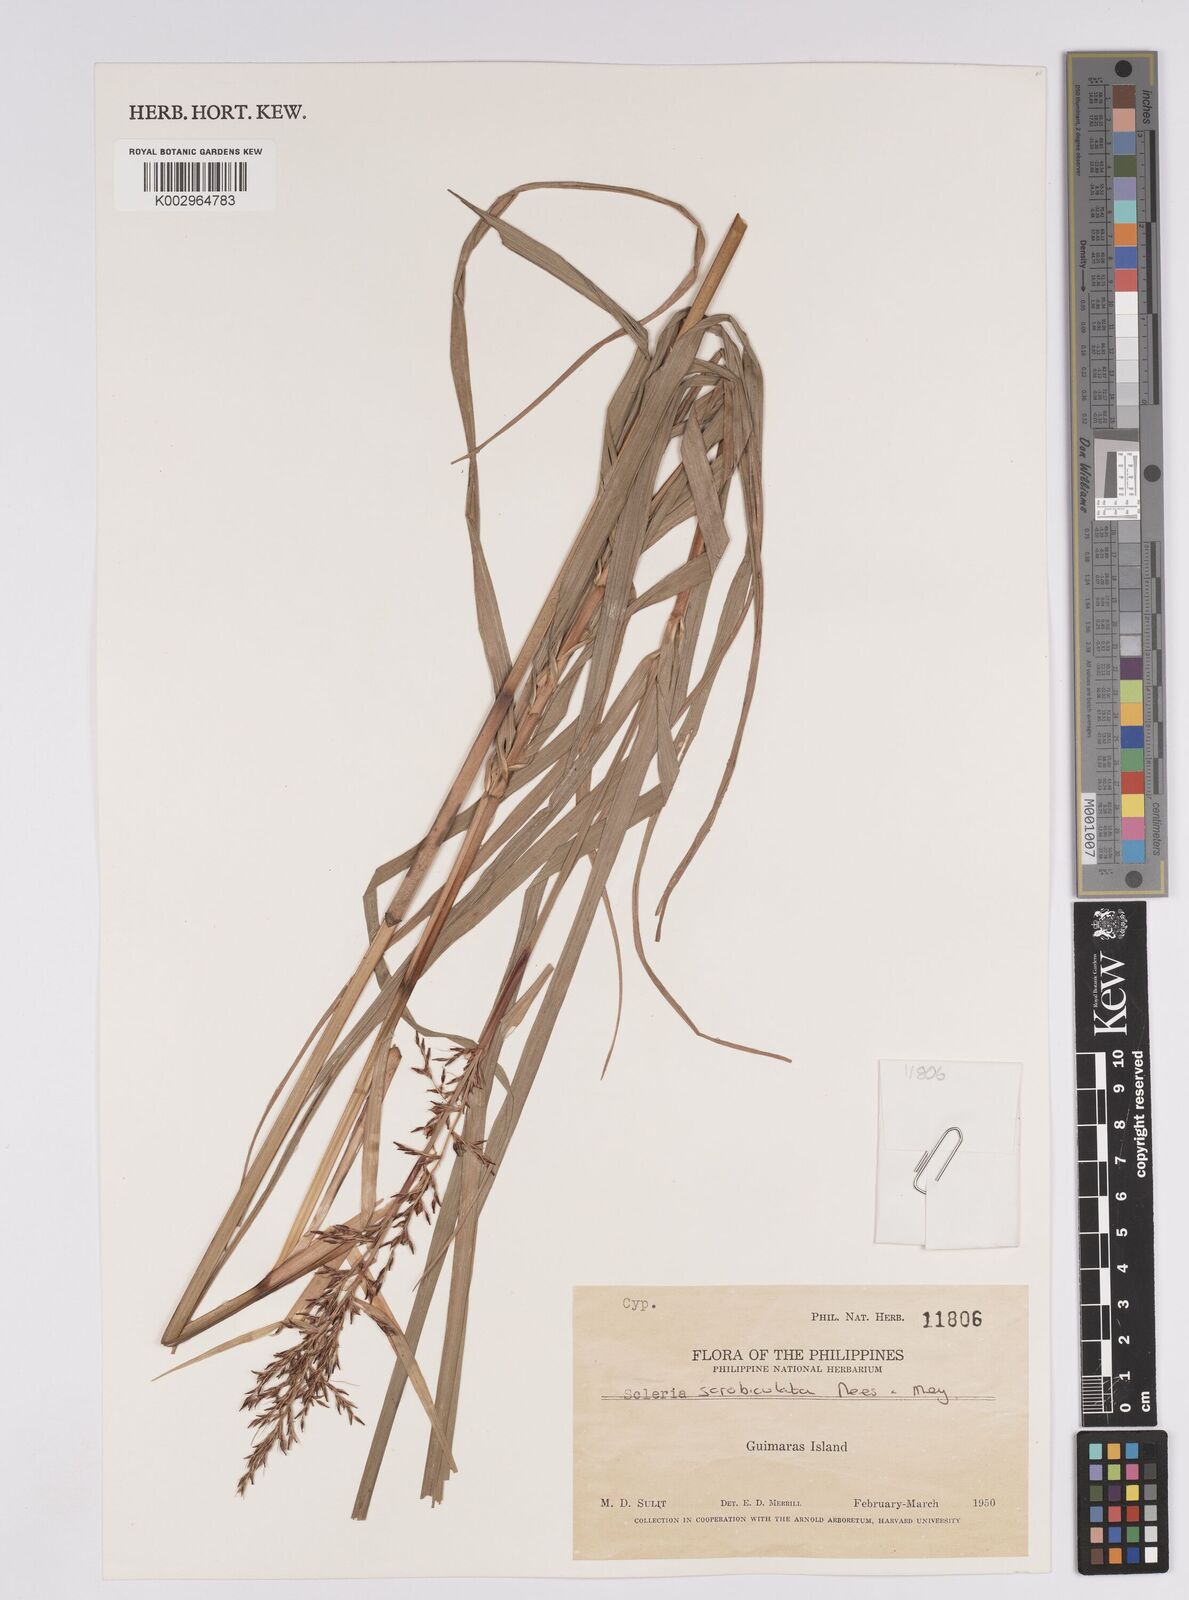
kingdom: Plantae
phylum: Tracheophyta
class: Liliopsida
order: Poales
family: Cyperaceae
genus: Scleria
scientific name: Scleria scrobiculata
